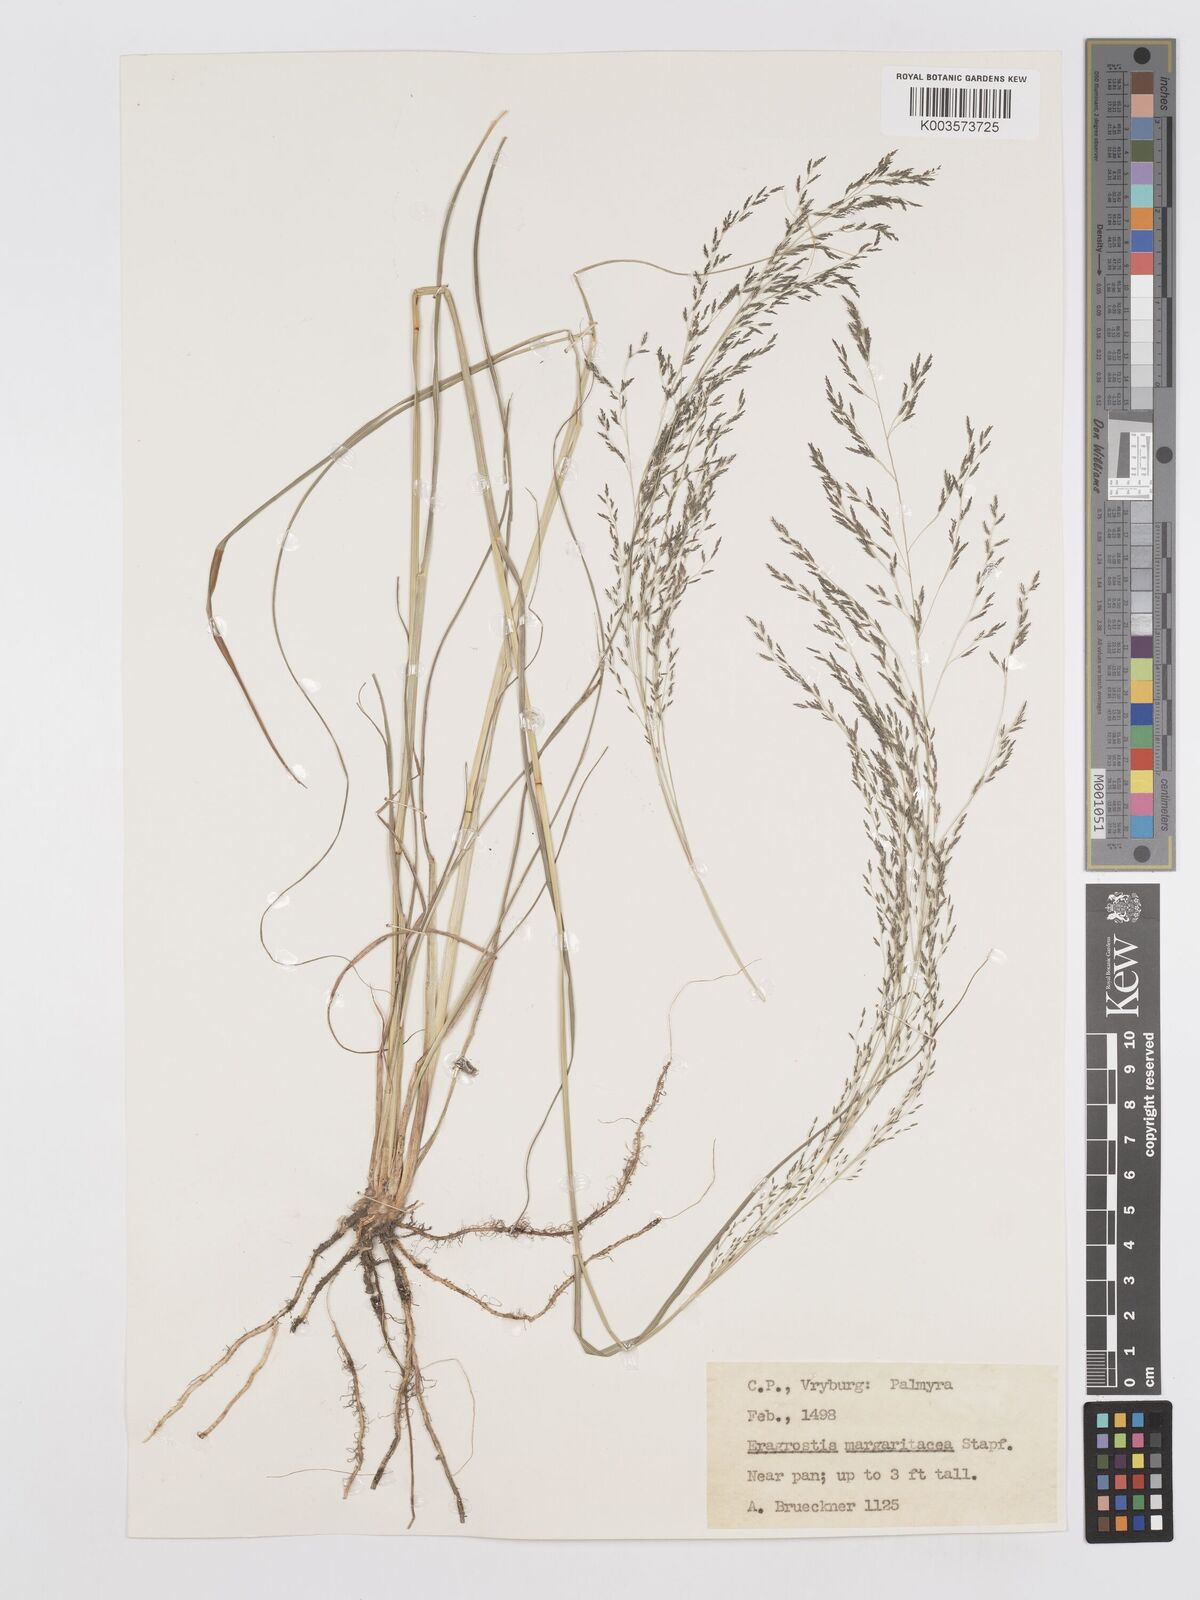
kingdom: Plantae
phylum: Tracheophyta
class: Liliopsida
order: Poales
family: Poaceae
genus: Eragrostis
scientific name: Eragrostis rotifer
